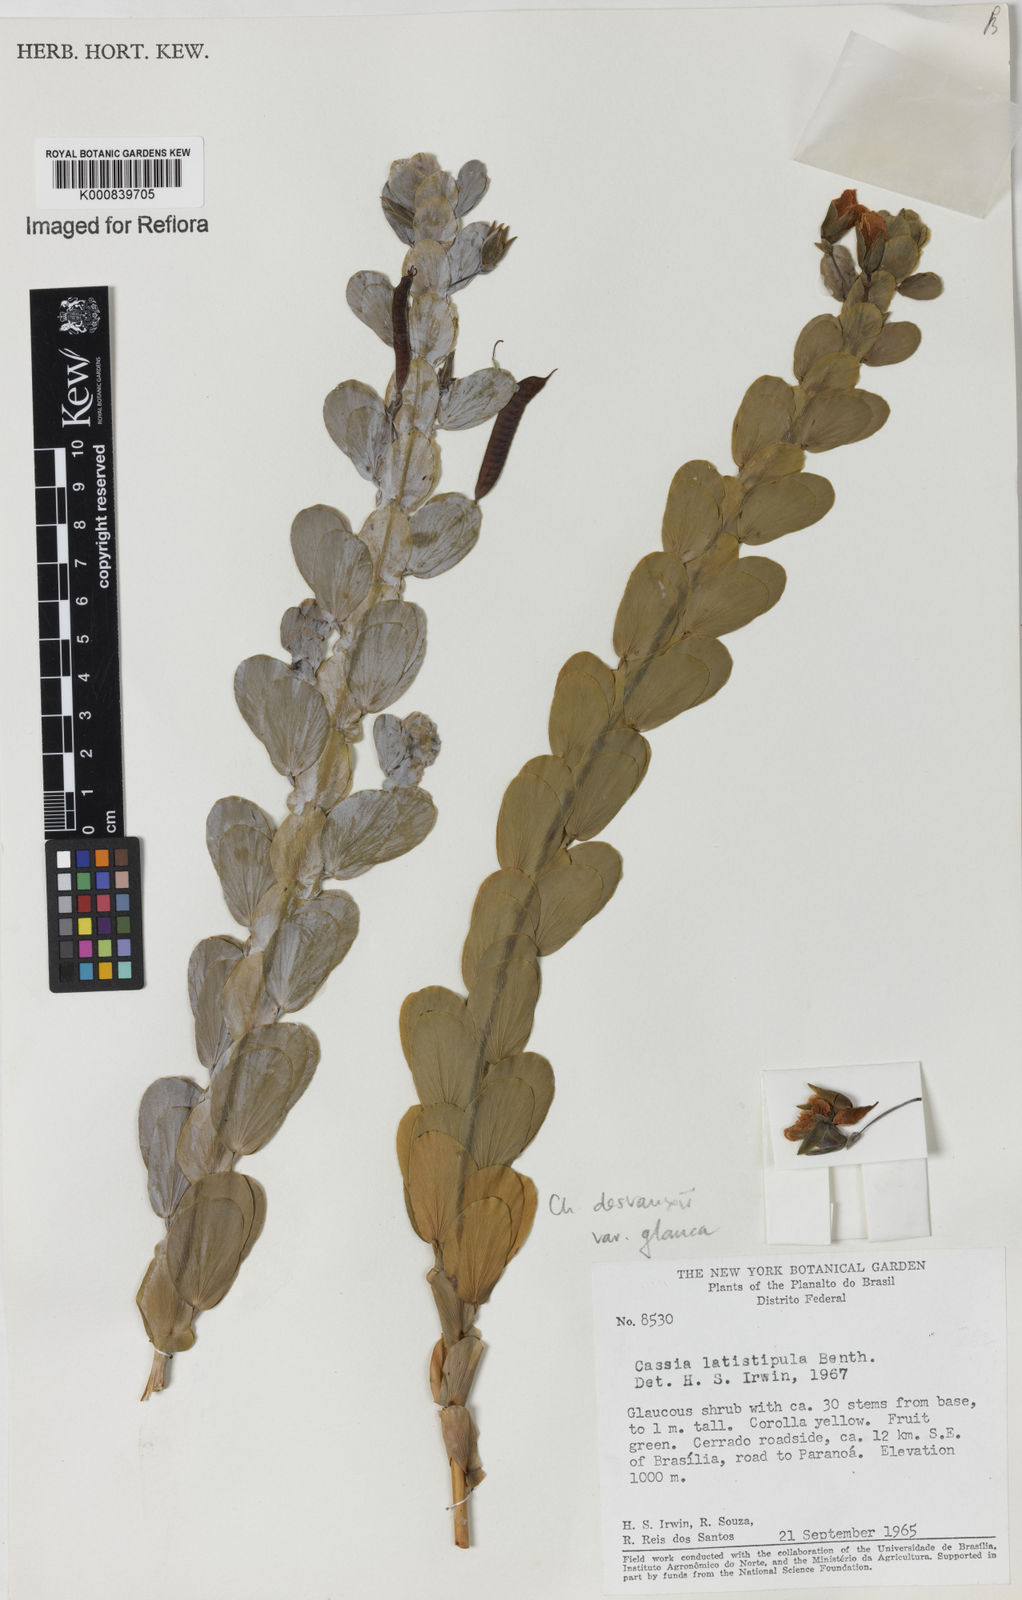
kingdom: Plantae
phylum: Tracheophyta
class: Magnoliopsida
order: Fabales
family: Fabaceae
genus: Chamaecrista
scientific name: Chamaecrista desvauxii
